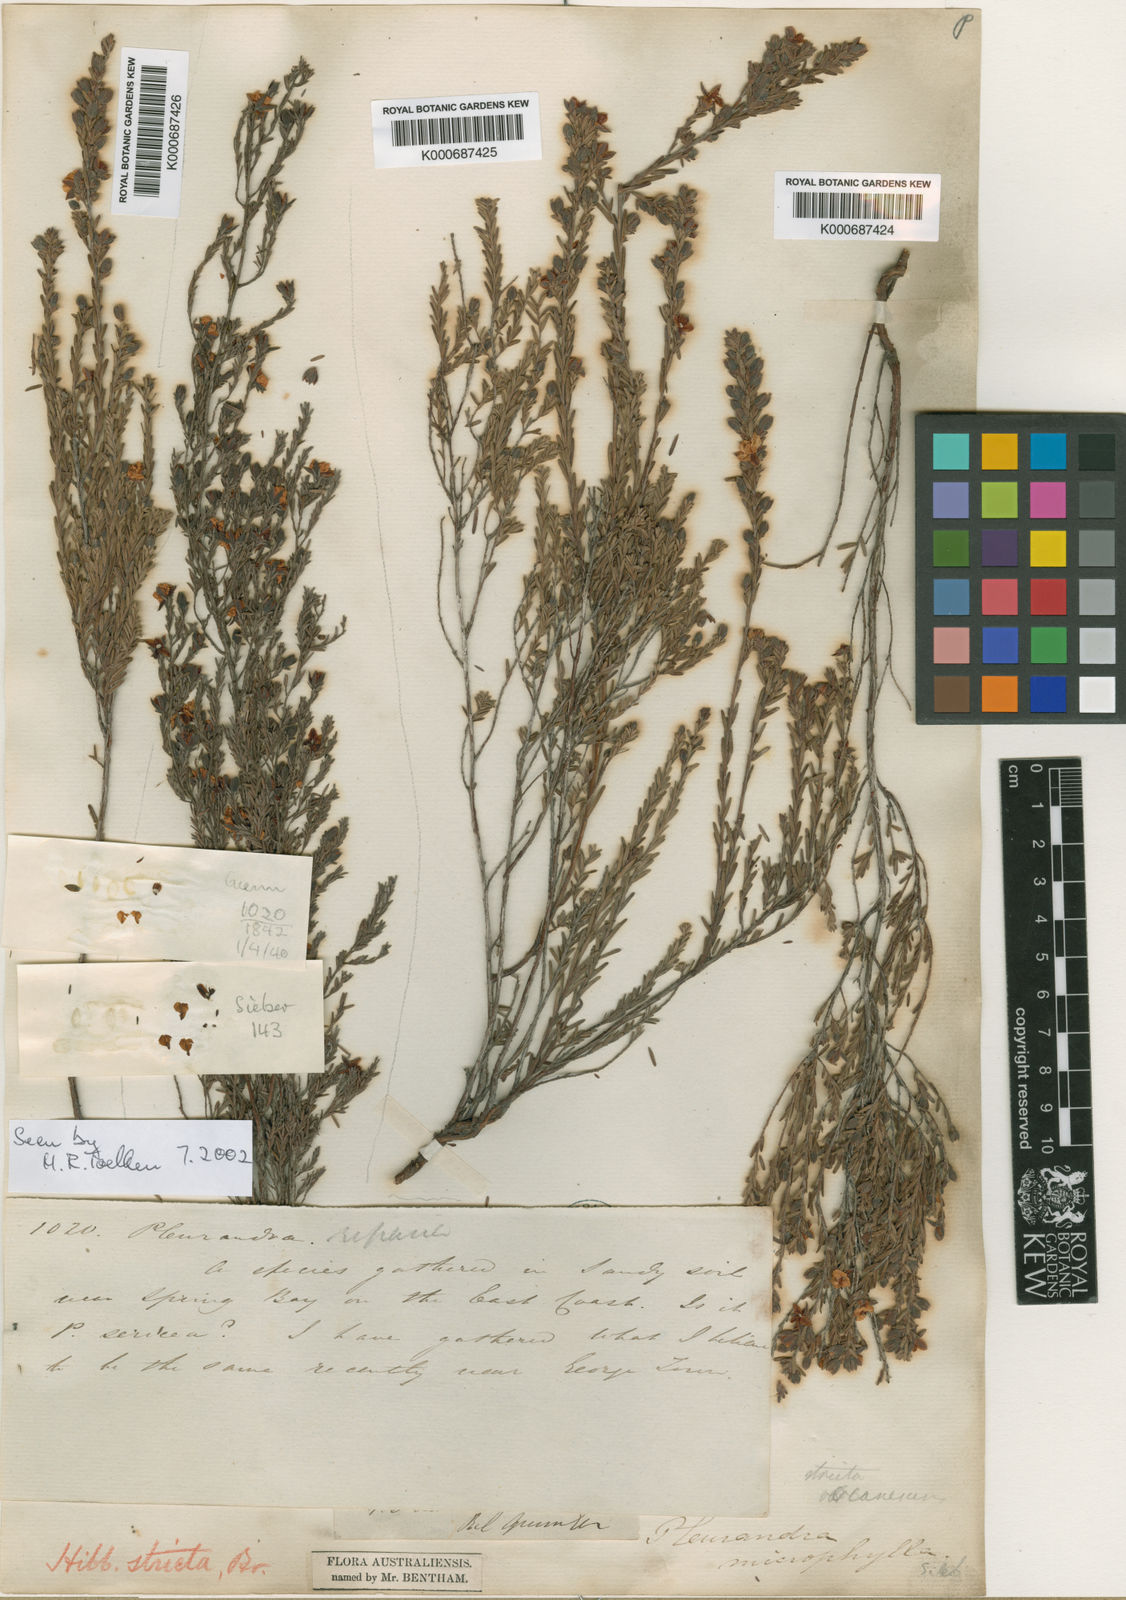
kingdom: Plantae
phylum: Tracheophyta
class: Magnoliopsida
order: Dilleniales
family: Dilleniaceae
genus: Hibbertia
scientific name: Hibbertia incana
